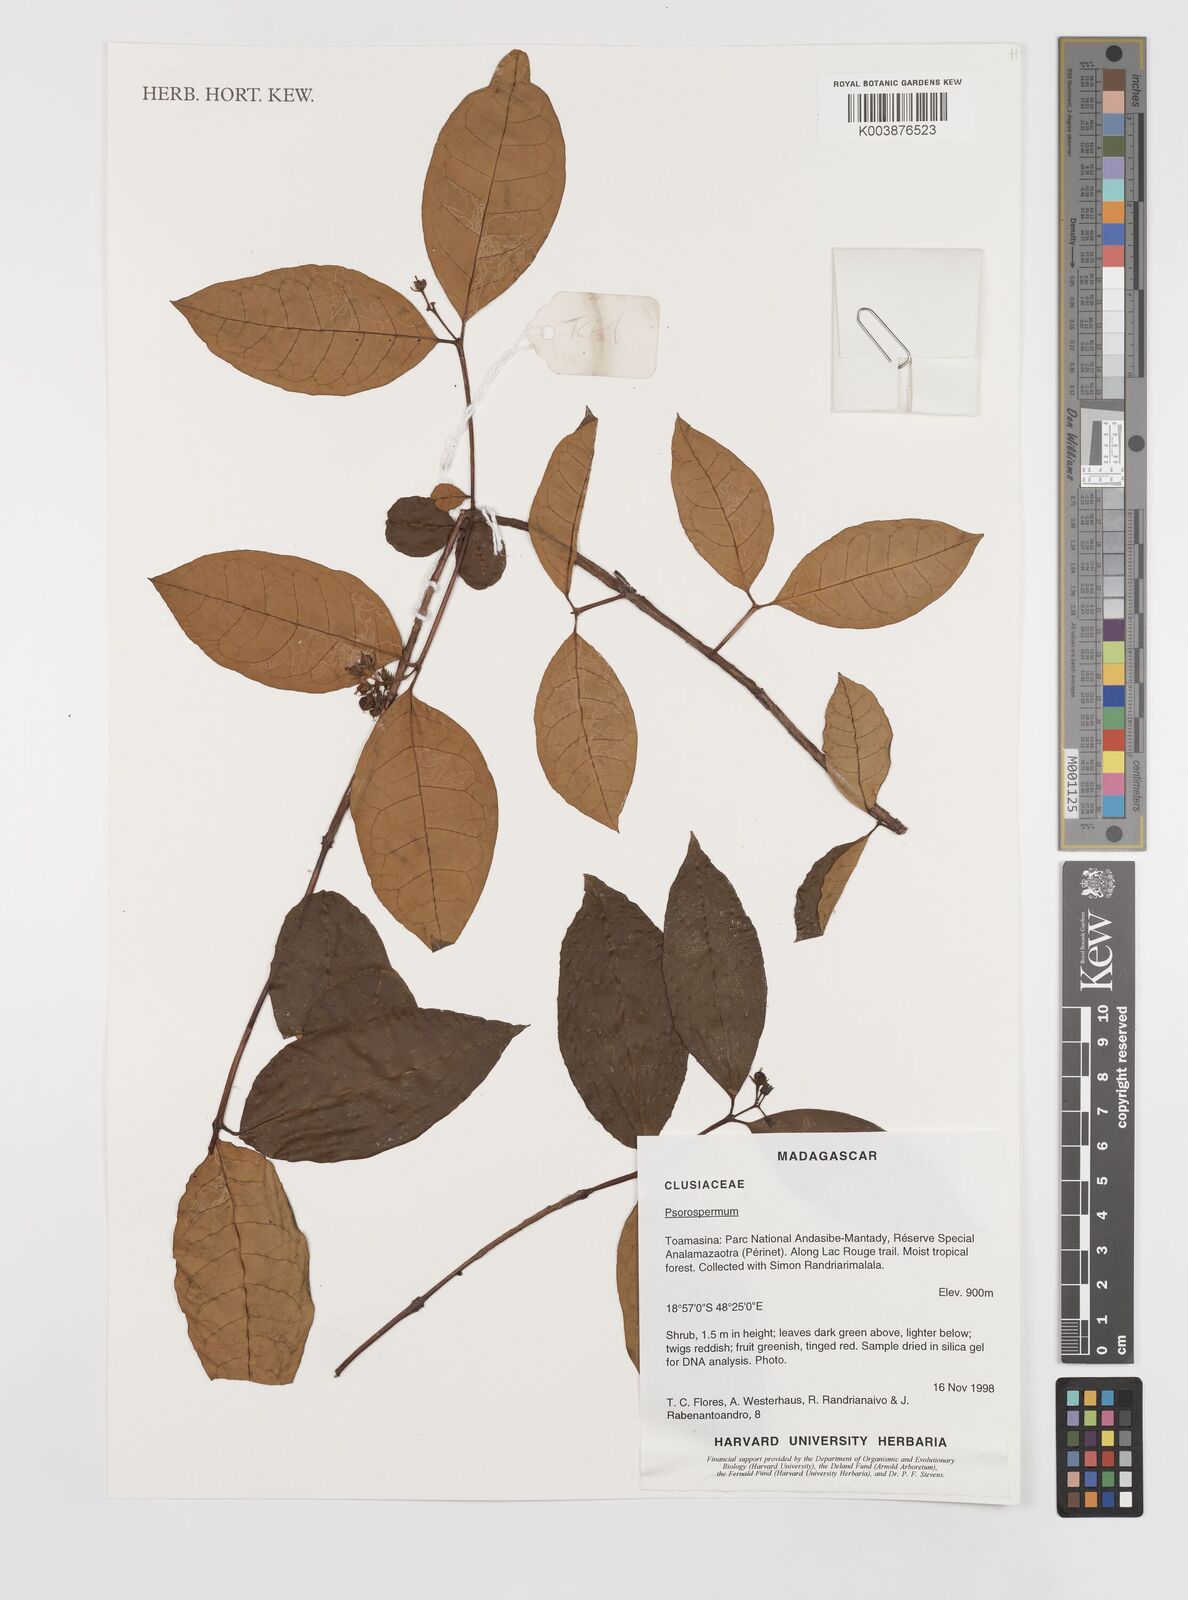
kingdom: Plantae
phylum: Tracheophyta
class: Magnoliopsida
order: Malpighiales
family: Hypericaceae
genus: Psorospermum
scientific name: Psorospermum
